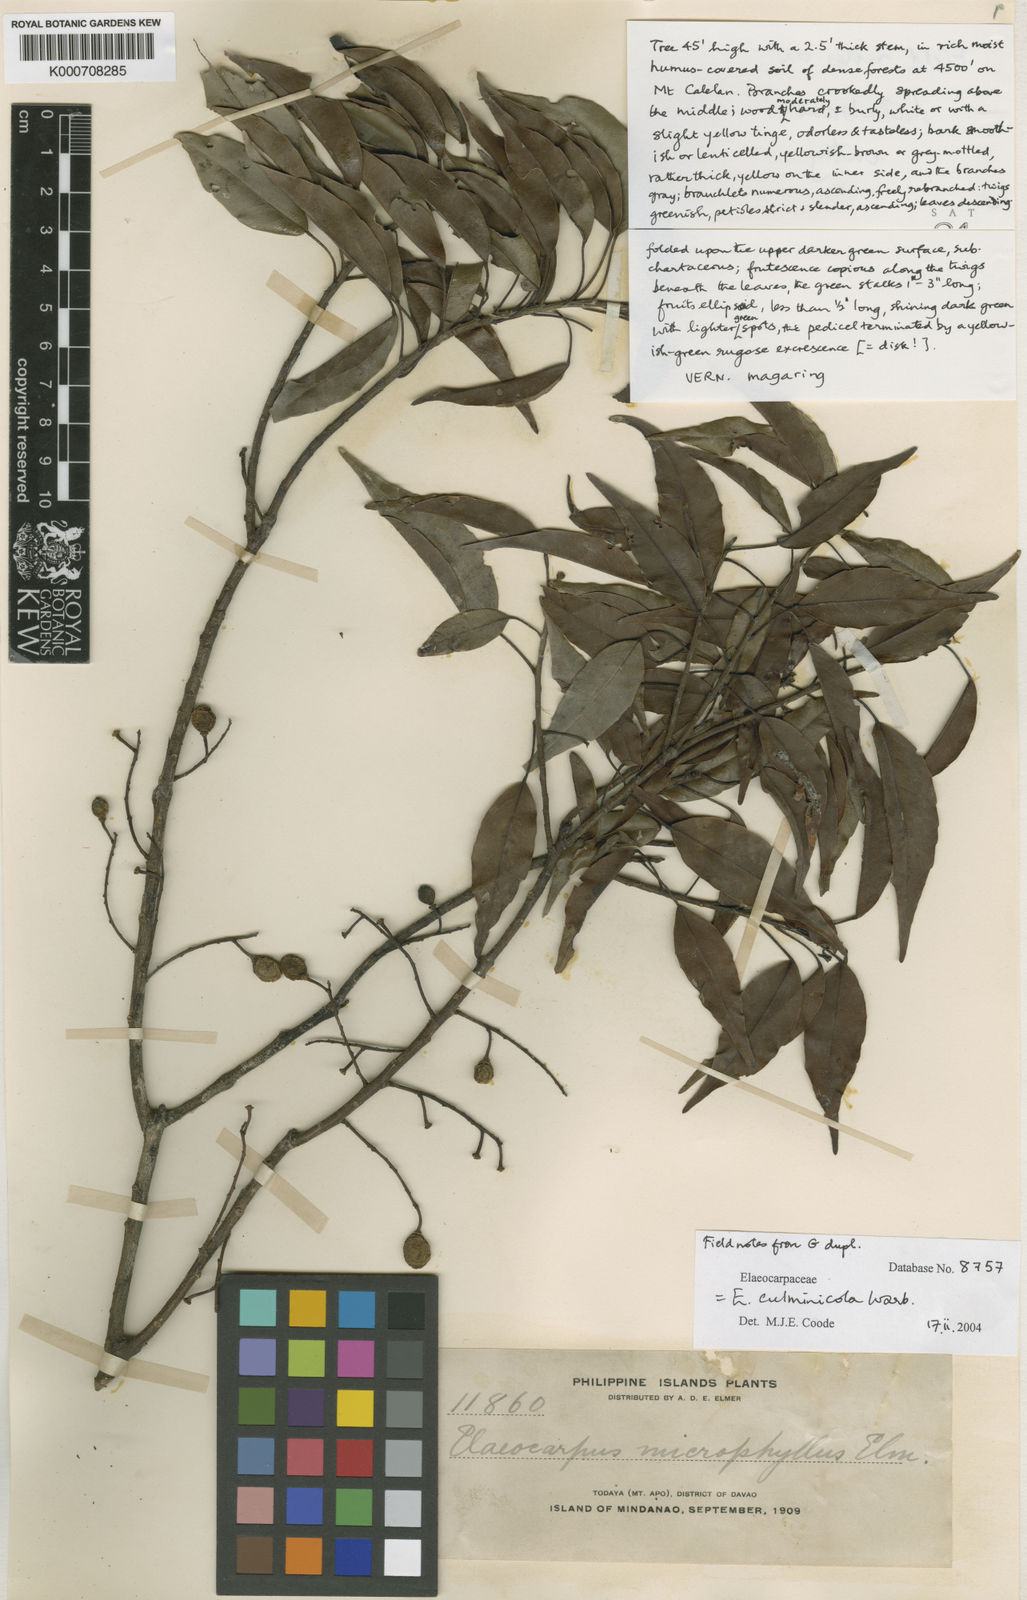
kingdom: Plantae
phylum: Tracheophyta
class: Magnoliopsida
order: Oxalidales
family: Elaeocarpaceae
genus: Elaeocarpus
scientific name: Elaeocarpus culminicola
